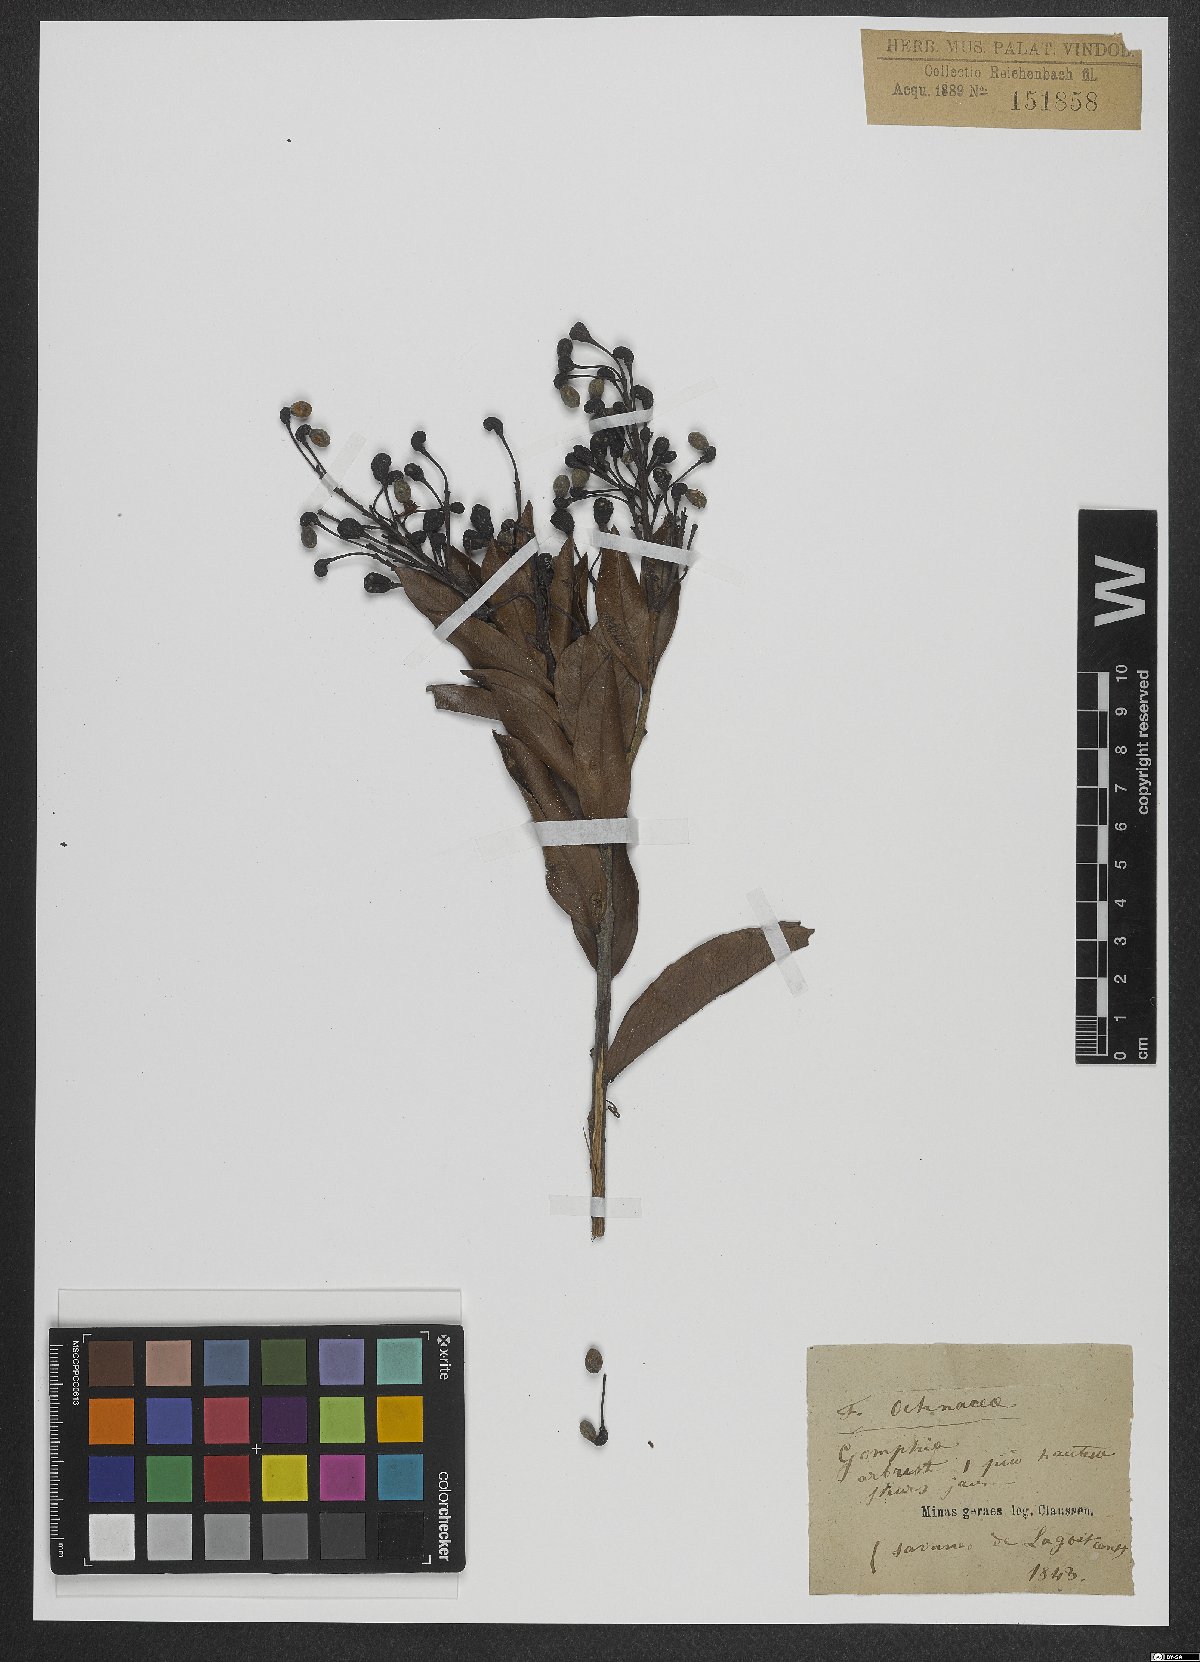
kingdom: Plantae
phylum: Tracheophyta
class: Magnoliopsida
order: Malpighiales
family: Ochnaceae
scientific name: Ochnaceae
